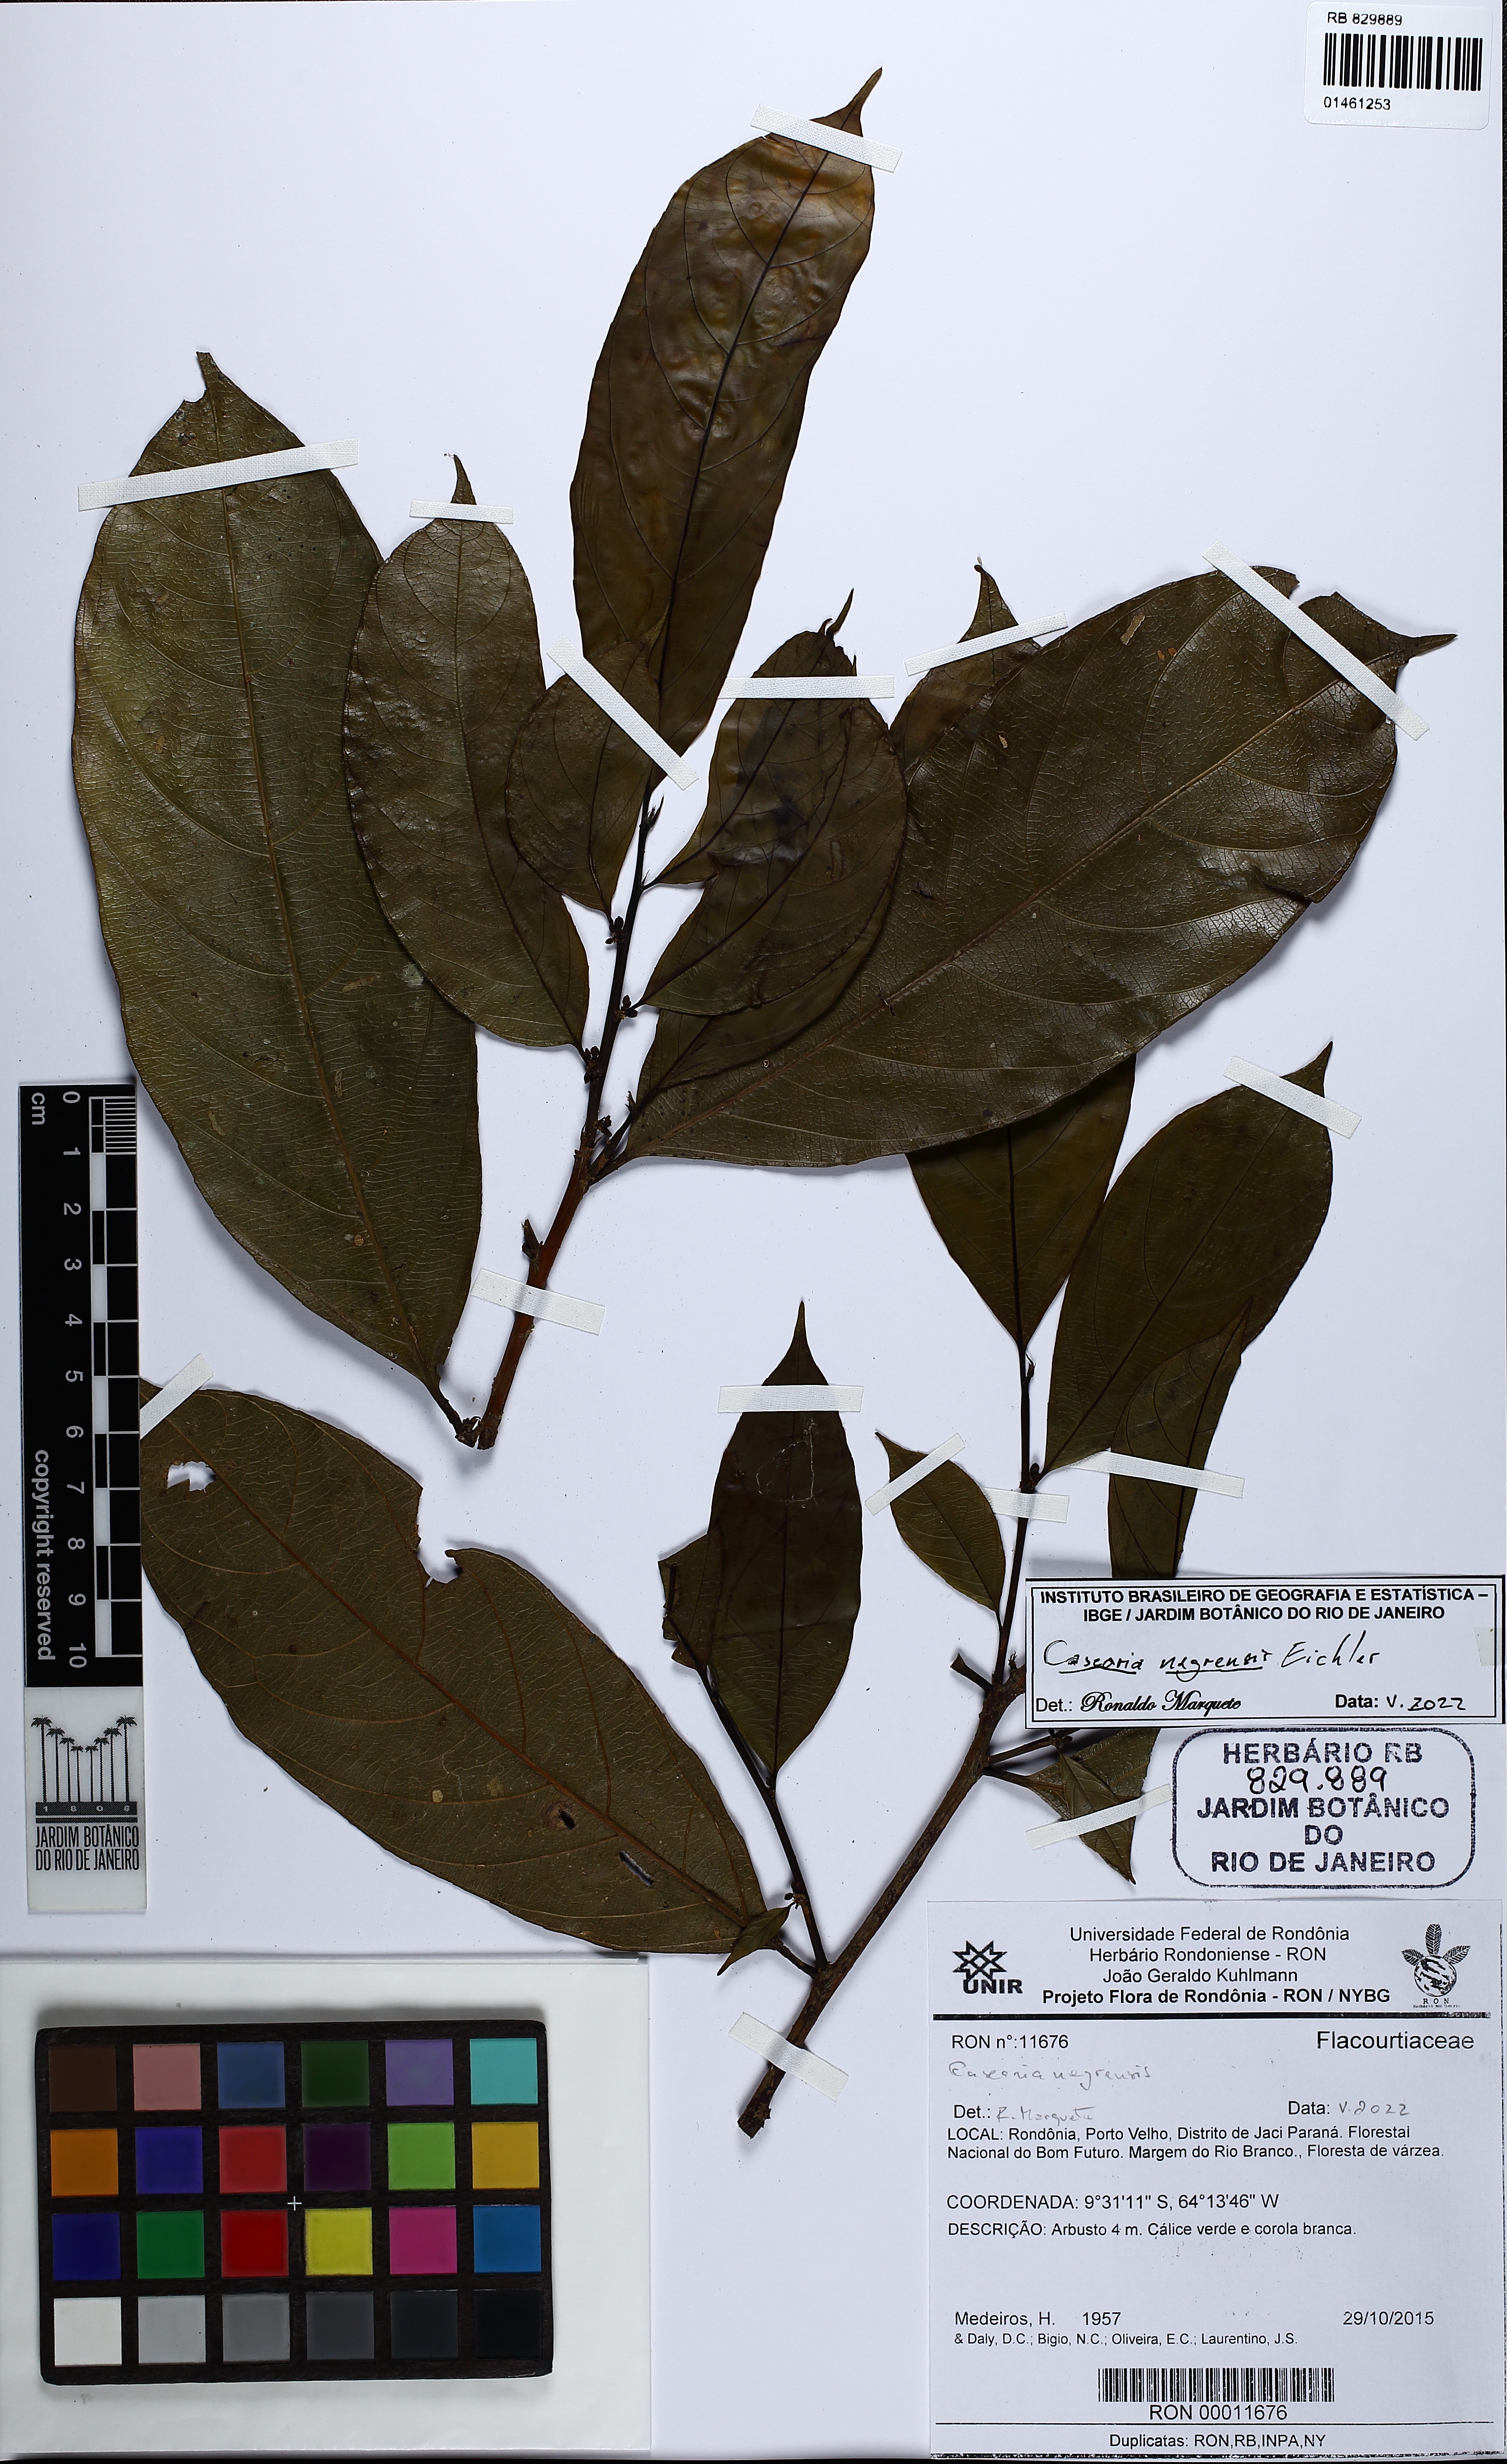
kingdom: Plantae
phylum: Tracheophyta
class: Magnoliopsida
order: Malpighiales
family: Salicaceae
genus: Casearia
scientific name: Casearia nigricans
